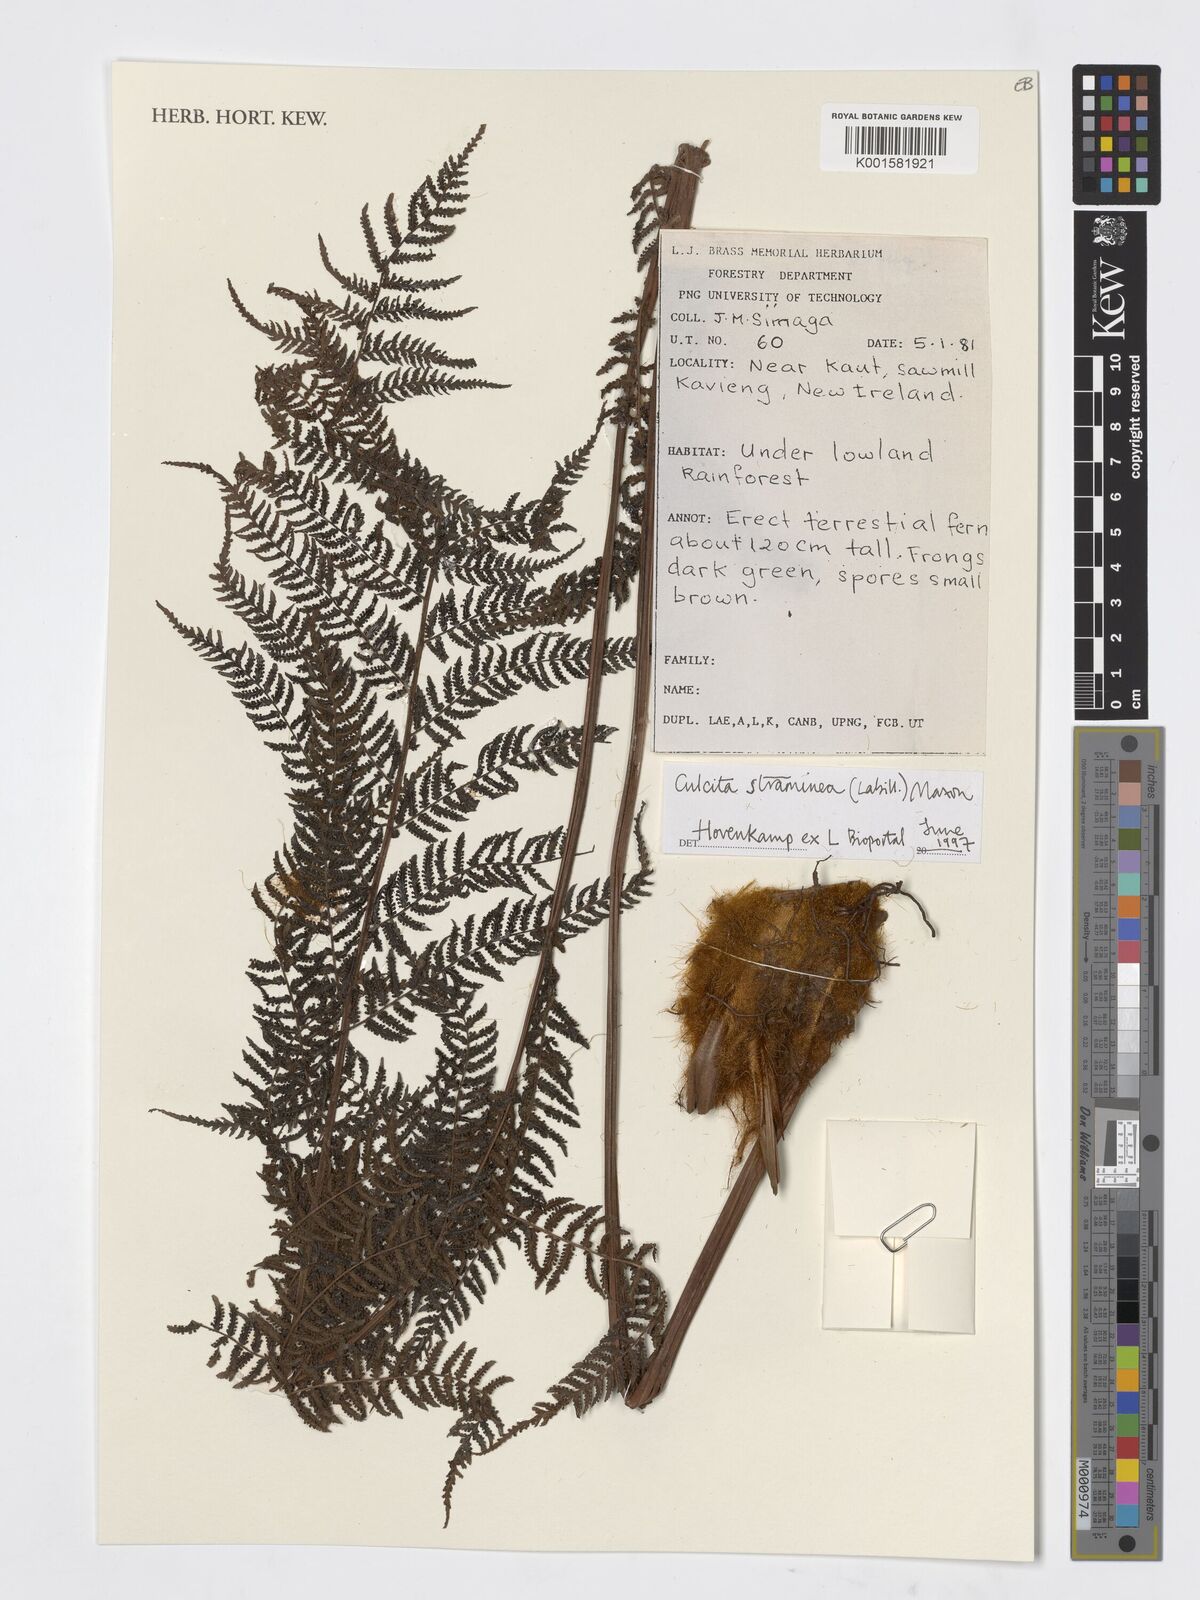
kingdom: Plantae
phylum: Tracheophyta
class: Polypodiopsida
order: Cyatheales
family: Dicksoniaceae
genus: Calochlaena
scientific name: Calochlaena straminea
